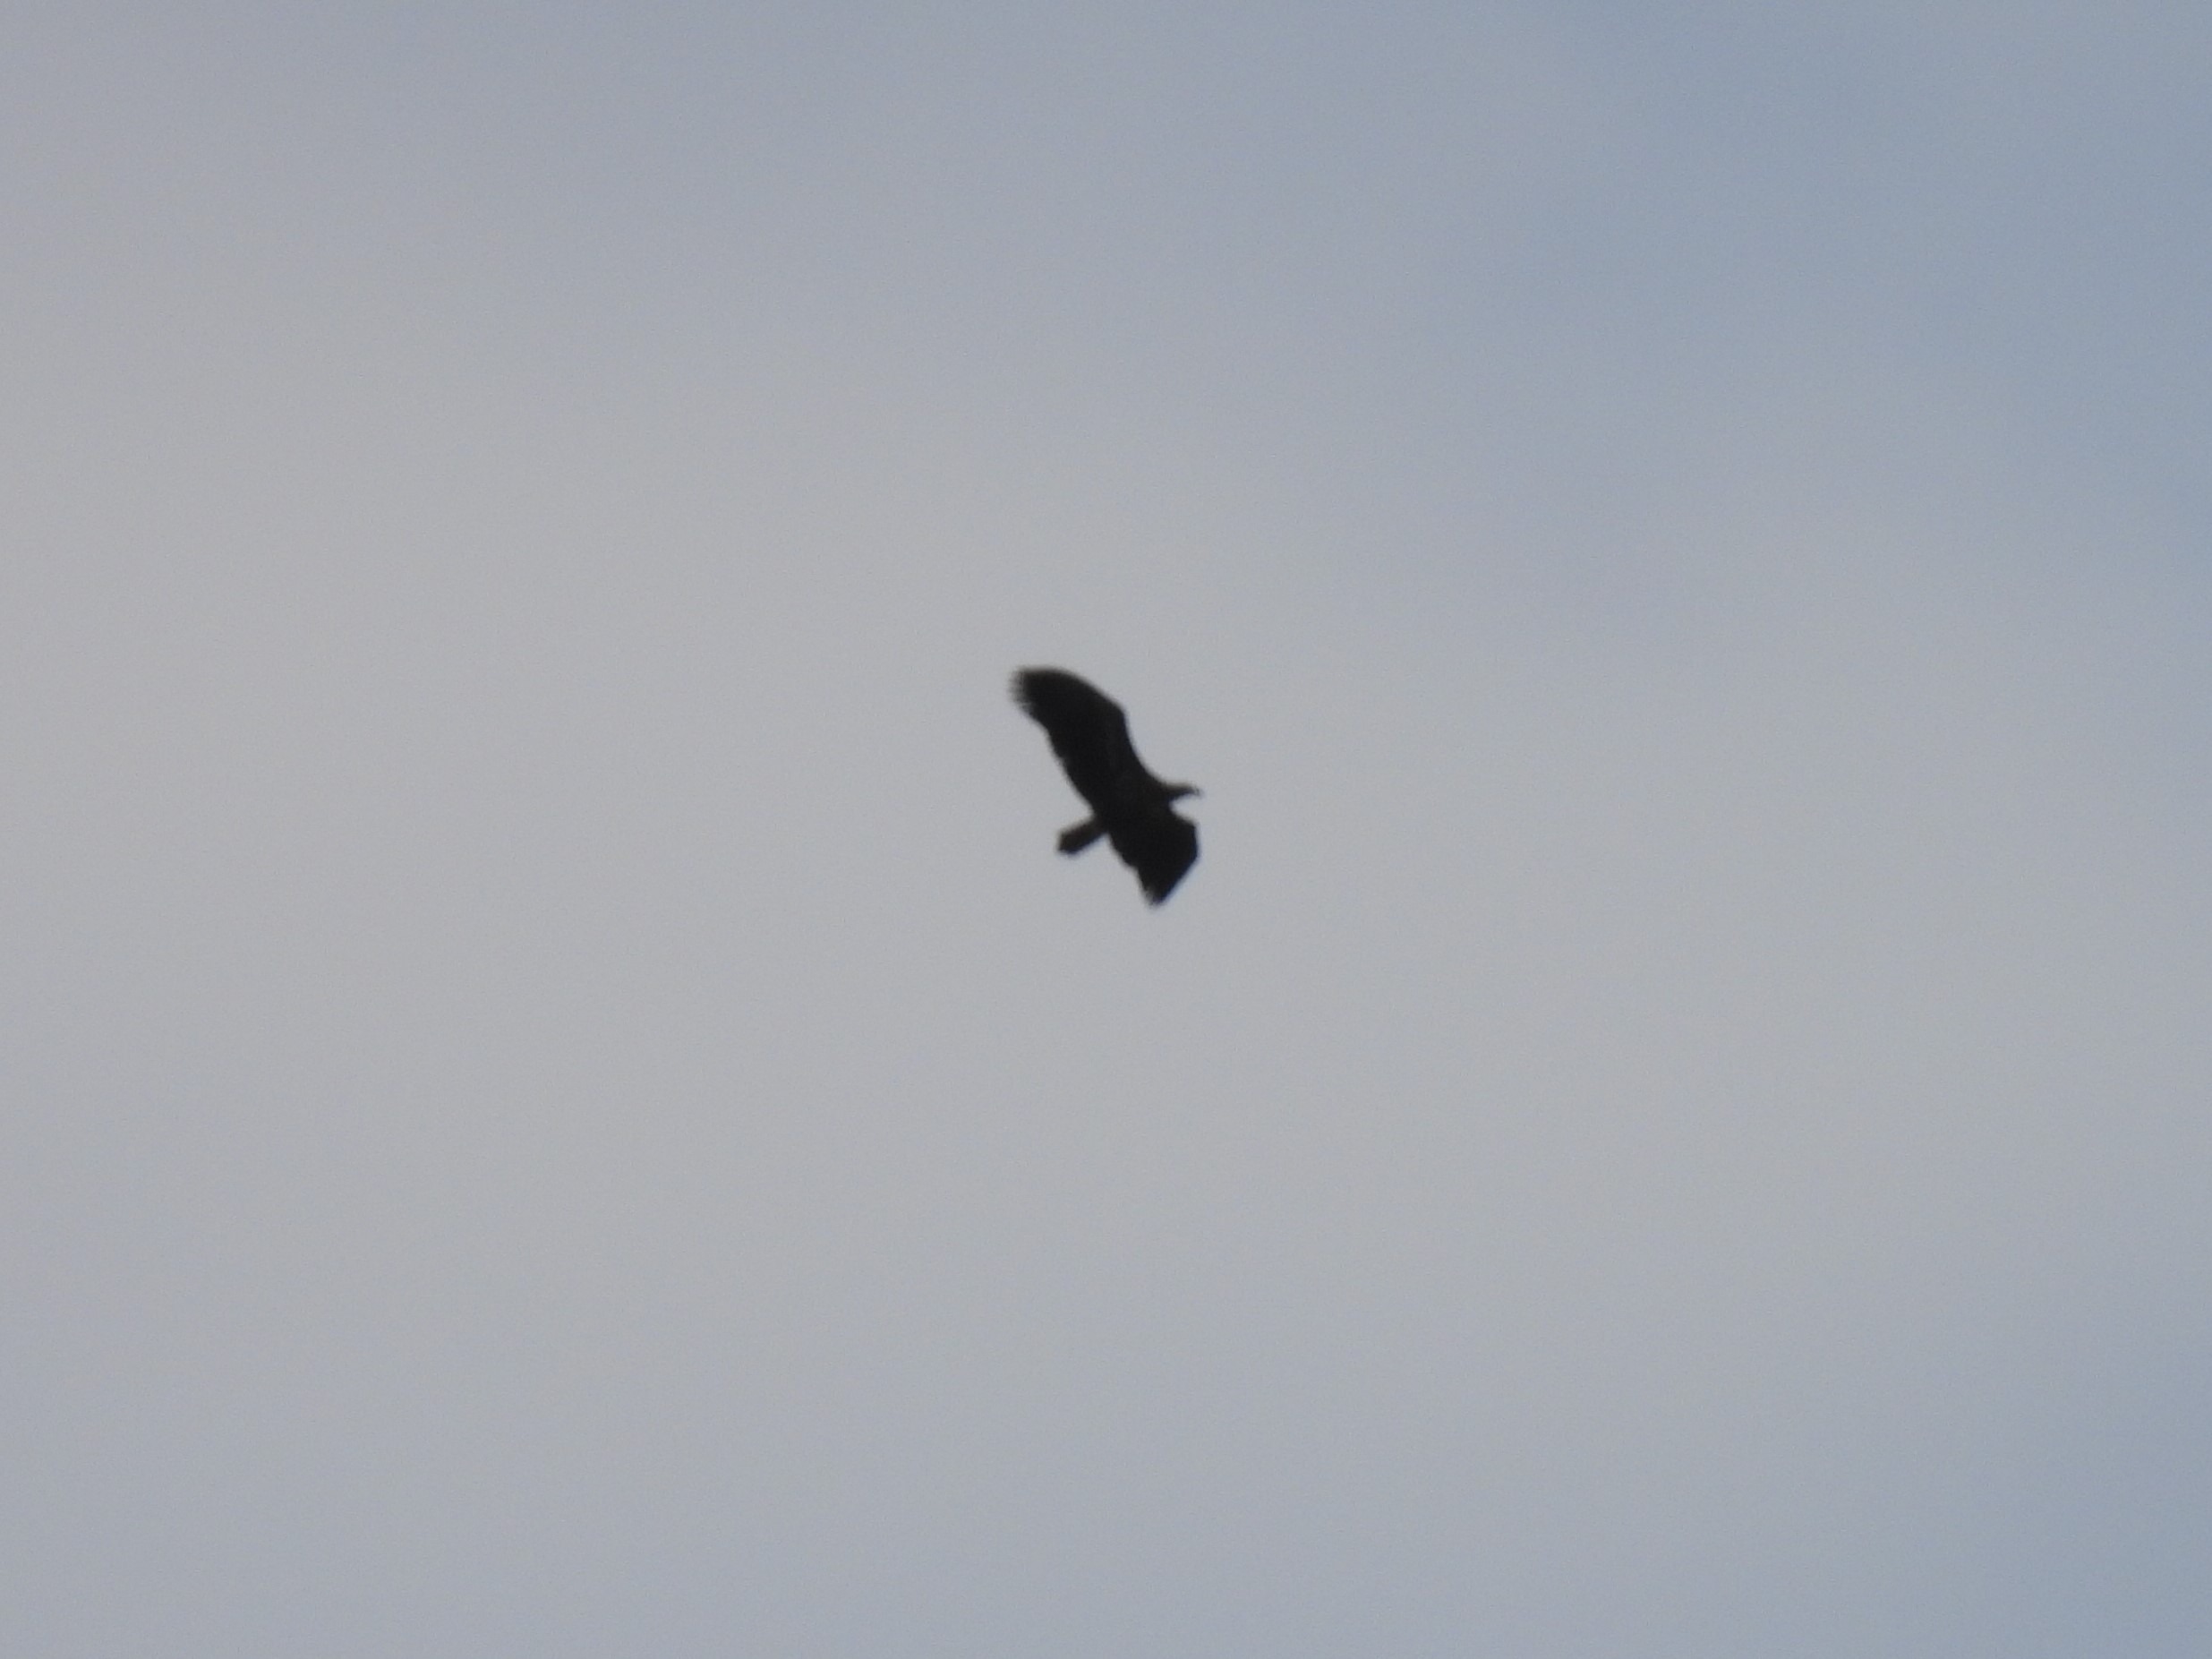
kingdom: Animalia
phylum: Chordata
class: Aves
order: Accipitriformes
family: Accipitridae
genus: Haliaeetus
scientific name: Haliaeetus albicilla
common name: Havørn
